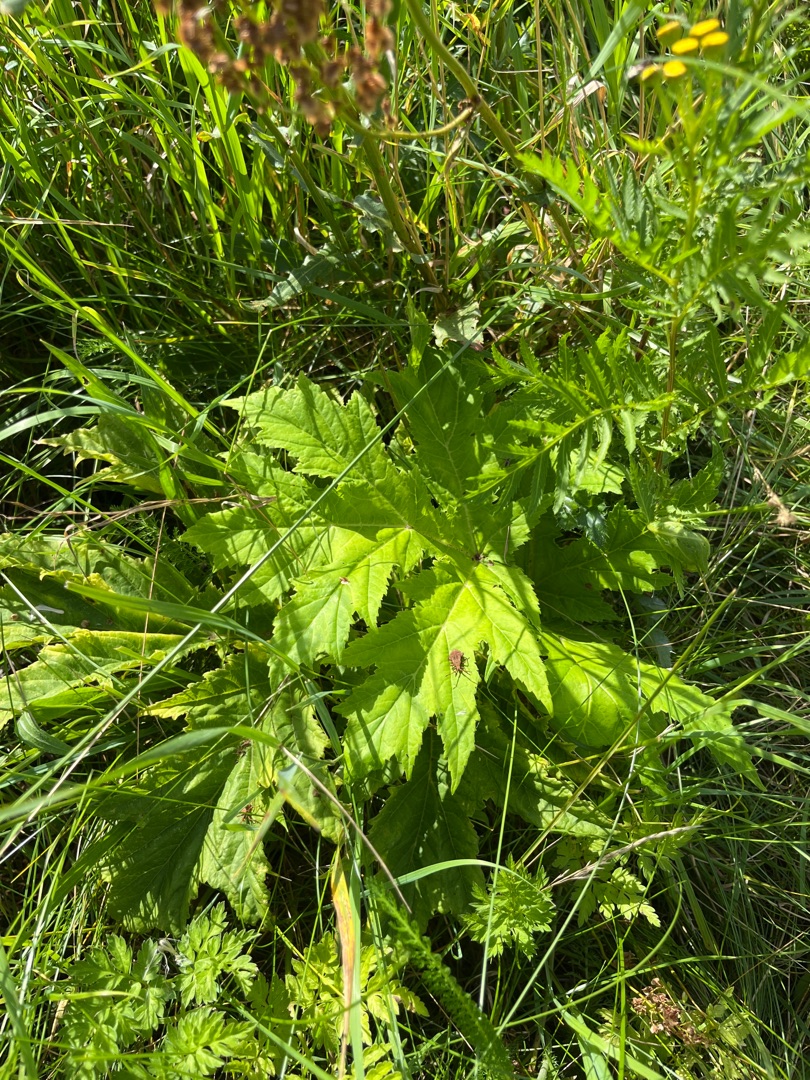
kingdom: Plantae
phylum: Tracheophyta
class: Magnoliopsida
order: Apiales
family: Apiaceae
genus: Heracleum
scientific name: Heracleum mantegazzianum
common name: Kæmpe-bjørneklo
